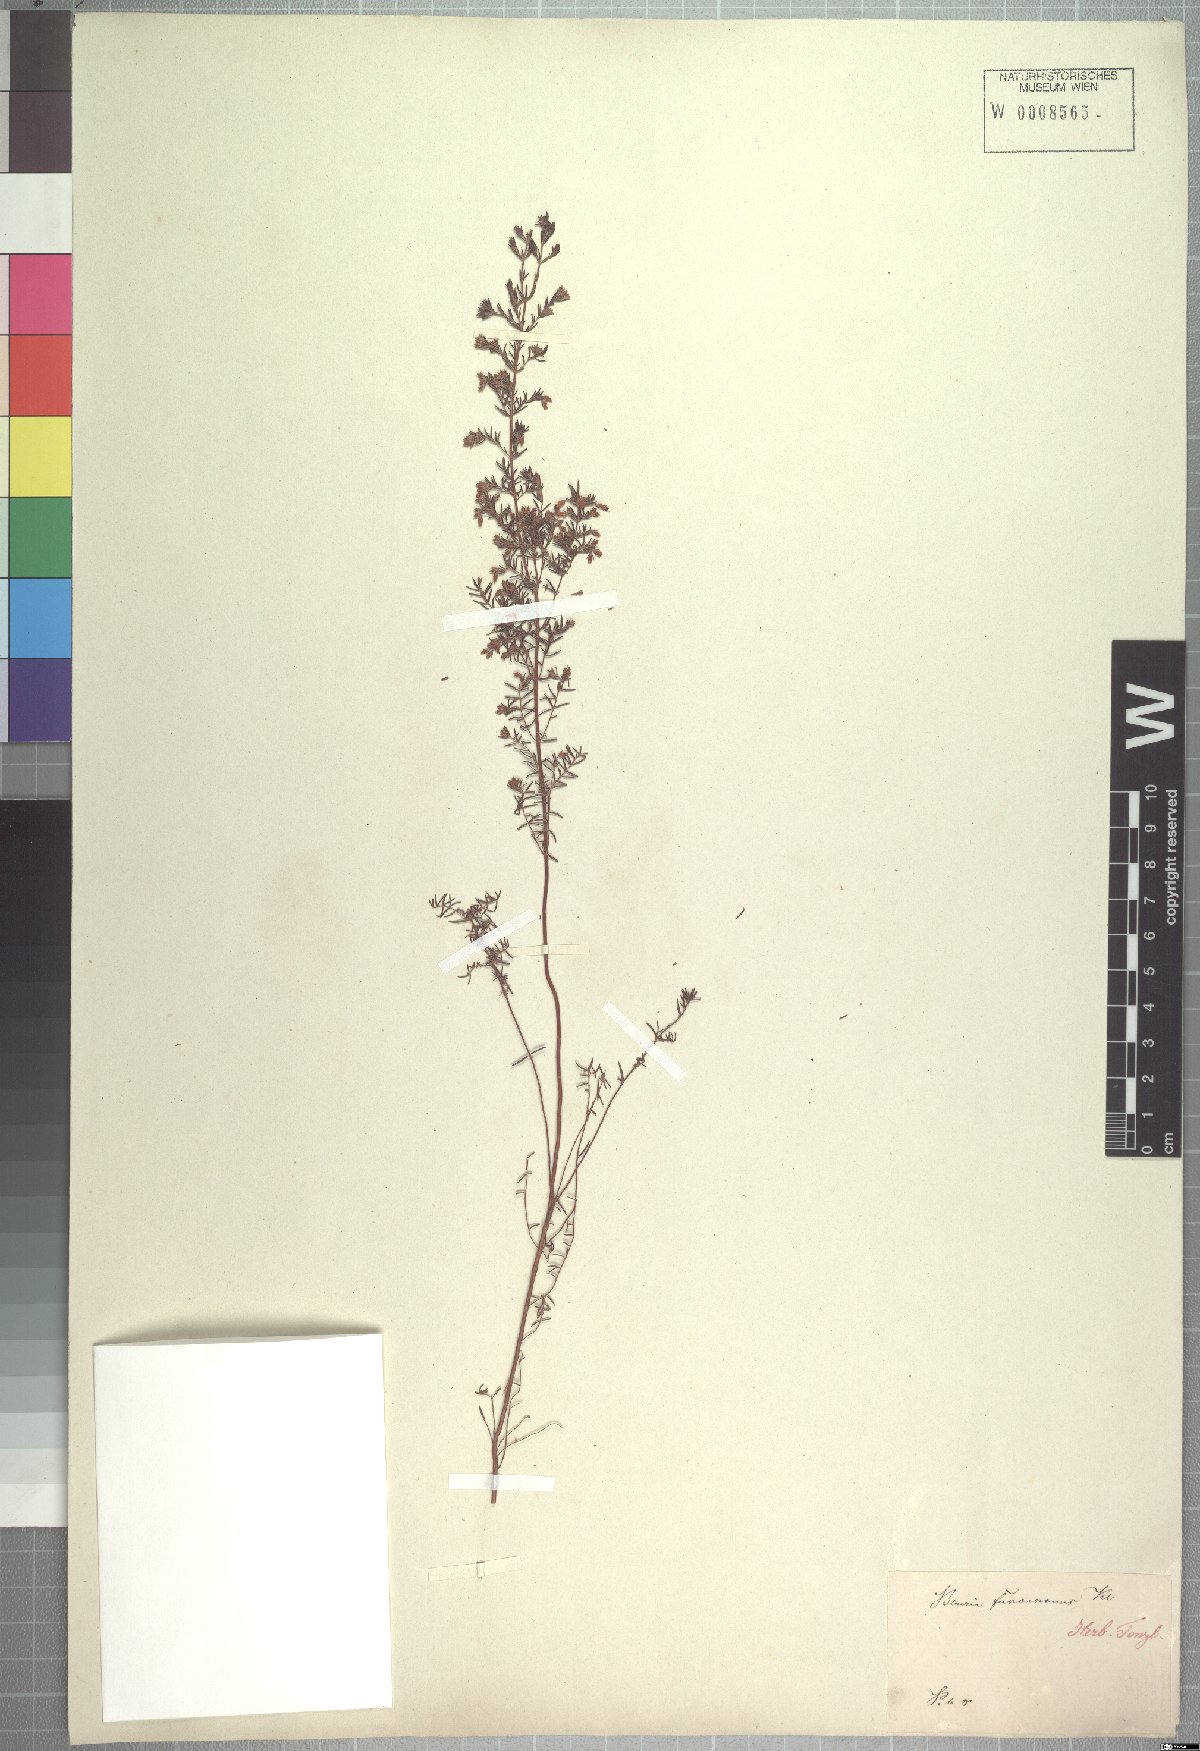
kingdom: Plantae
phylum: Tracheophyta
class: Magnoliopsida
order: Ericales
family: Ericaceae
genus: Erica
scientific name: Erica fuscescens
